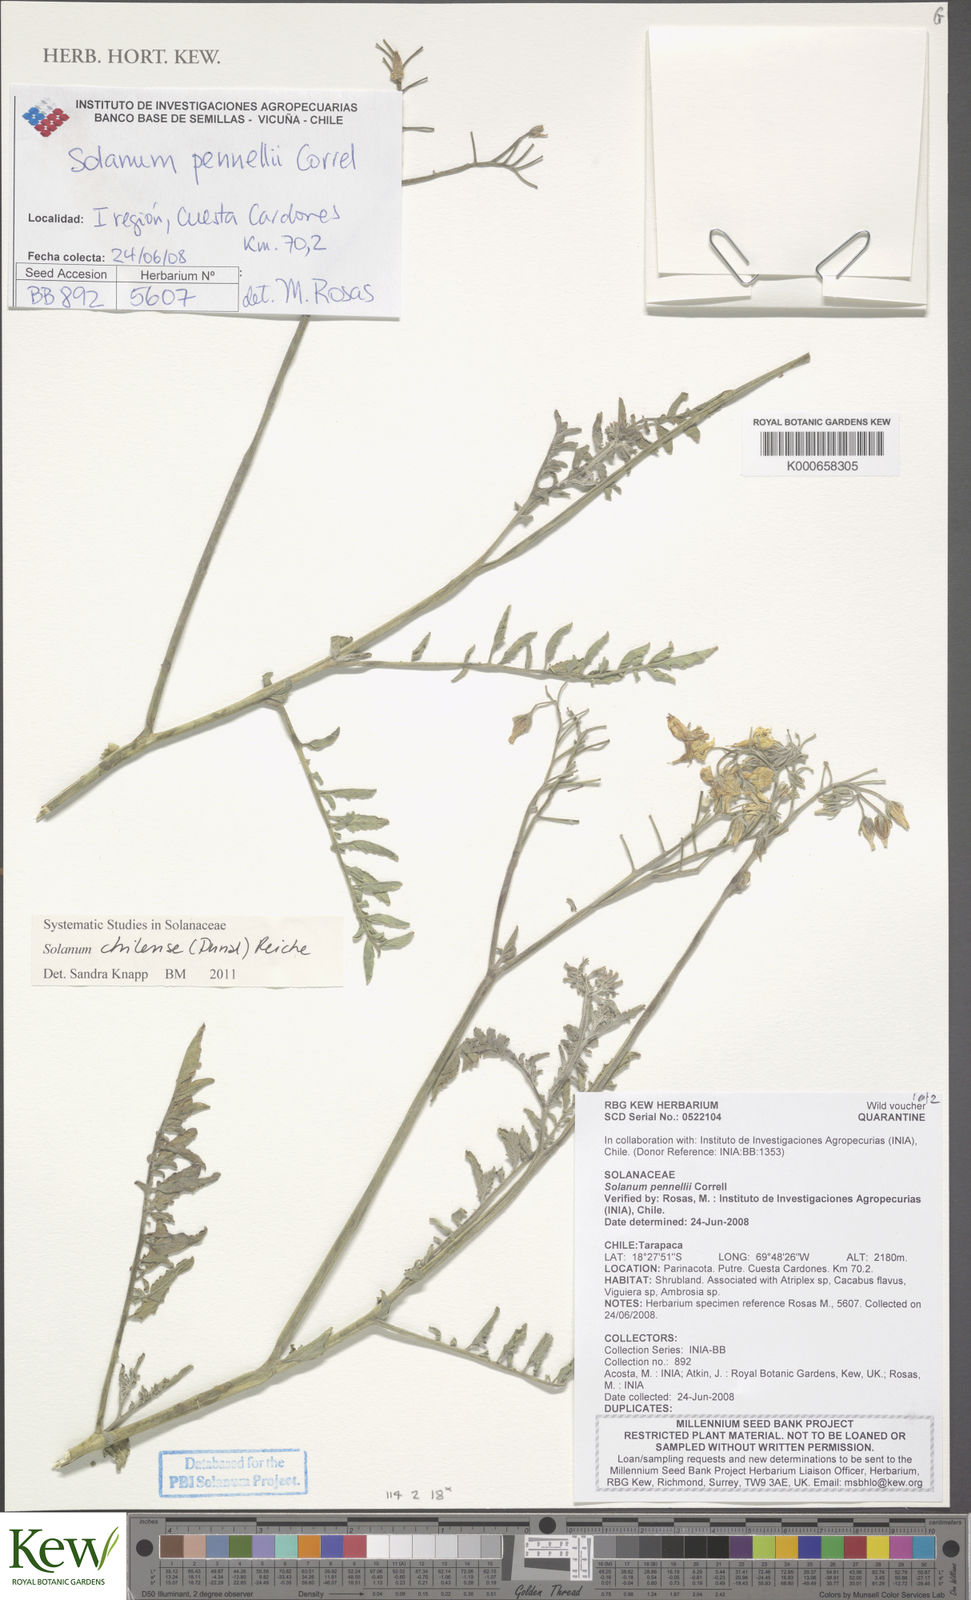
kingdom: Plantae
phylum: Tracheophyta
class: Magnoliopsida
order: Solanales
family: Solanaceae
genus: Solanum
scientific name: Solanum chilense
